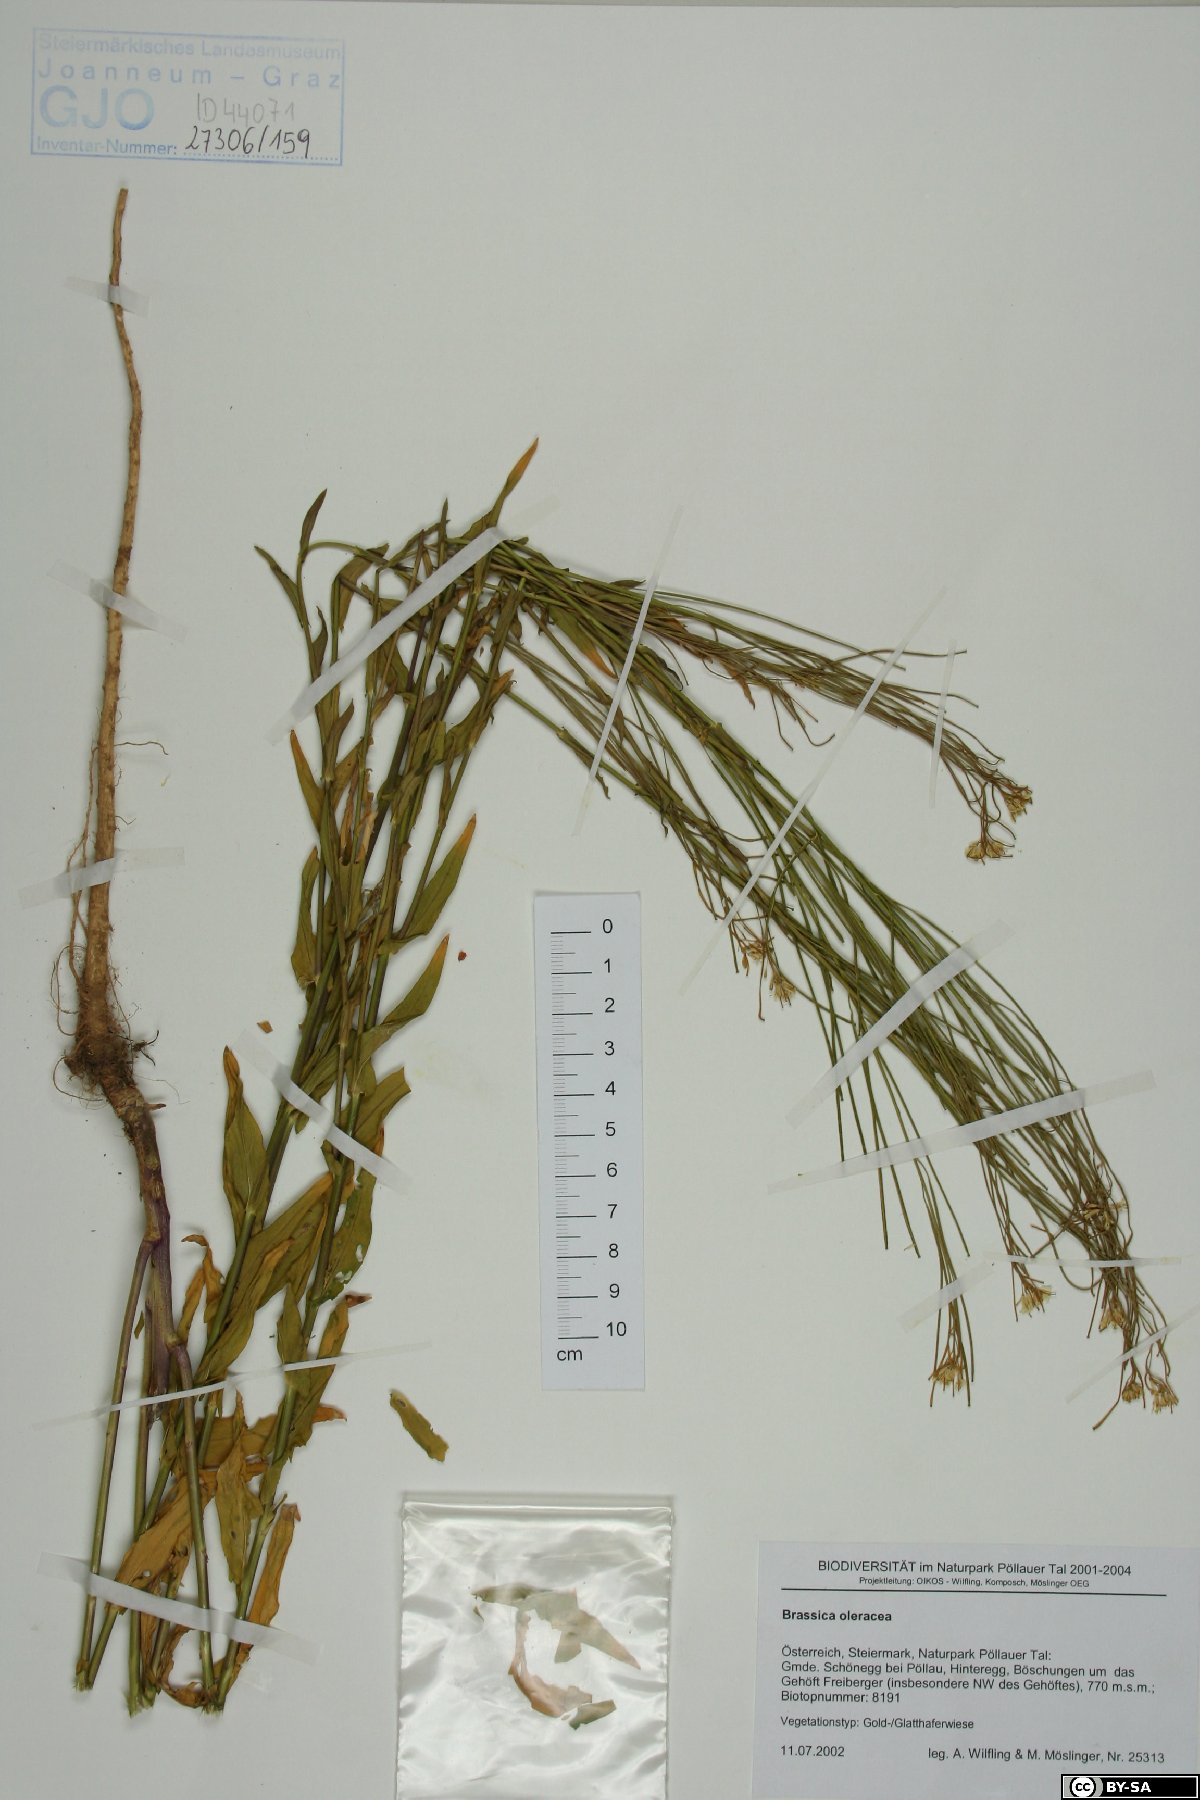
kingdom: Plantae
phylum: Tracheophyta
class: Magnoliopsida
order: Brassicales
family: Brassicaceae
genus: Brassica
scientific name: Brassica oleracea
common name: Cabbage
